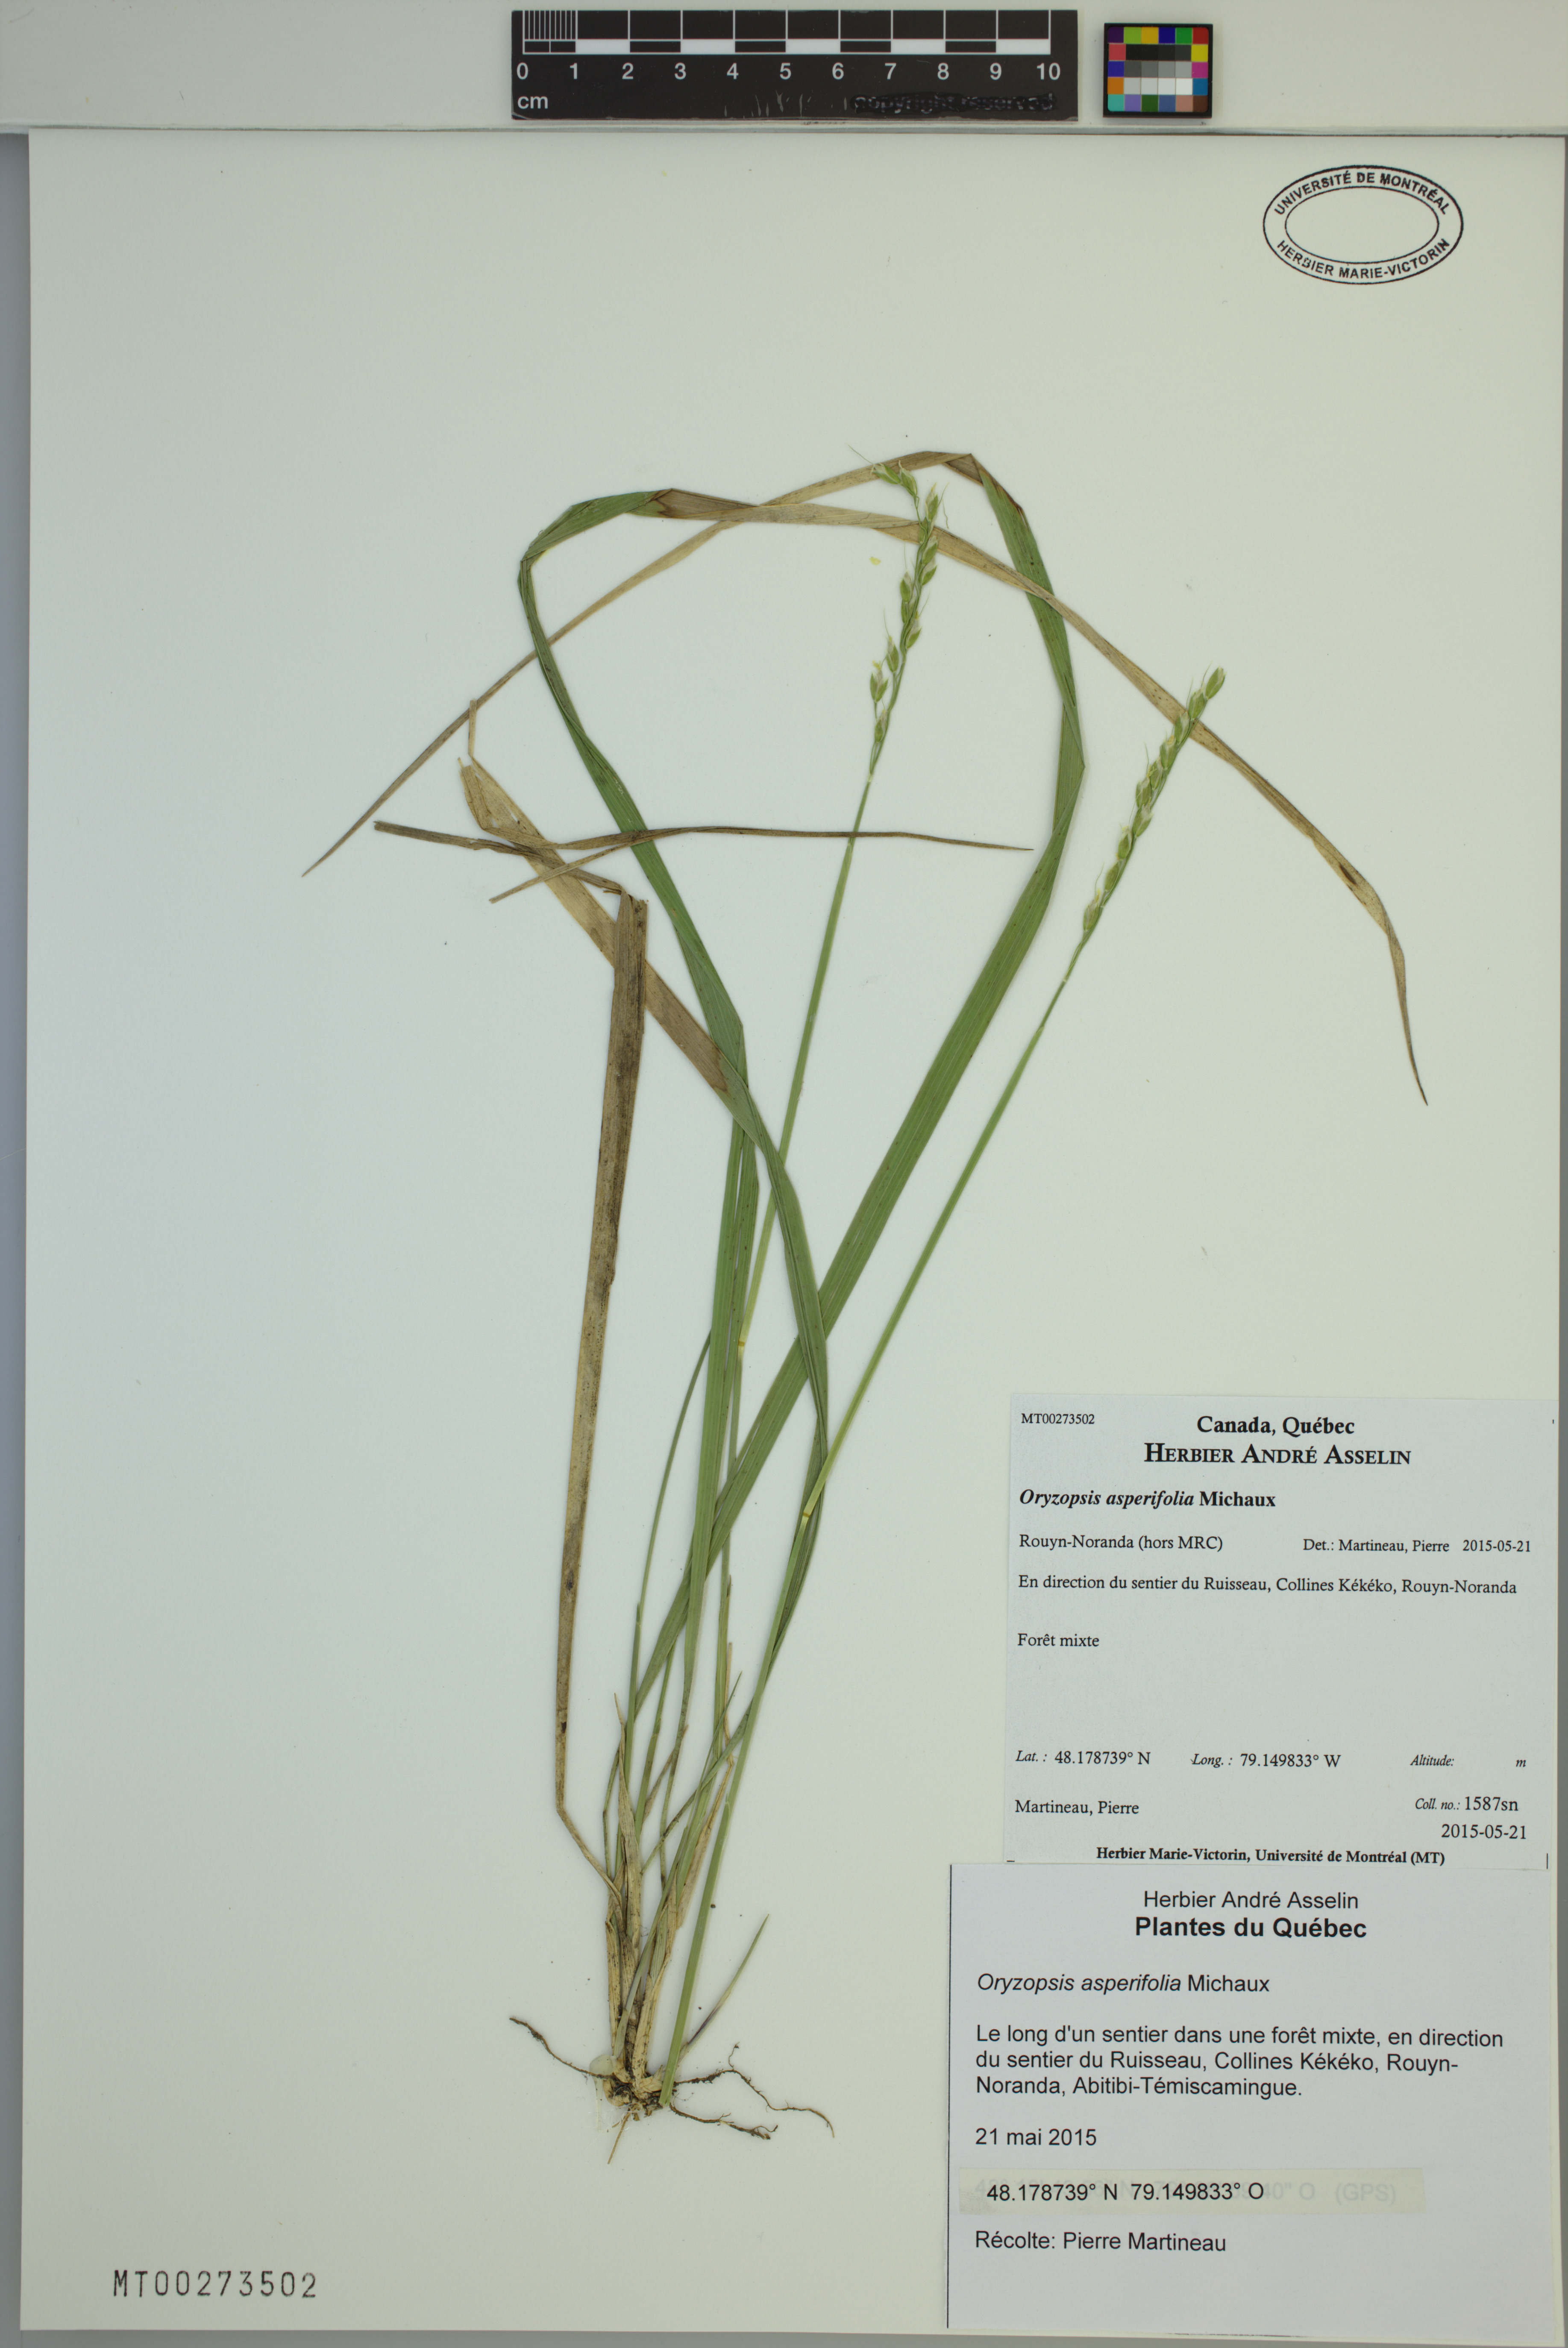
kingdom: Plantae
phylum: Tracheophyta
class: Liliopsida
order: Poales
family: Poaceae
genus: Oryzopsis
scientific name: Oryzopsis asperifolia
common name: Rough-leaved mountain rice
